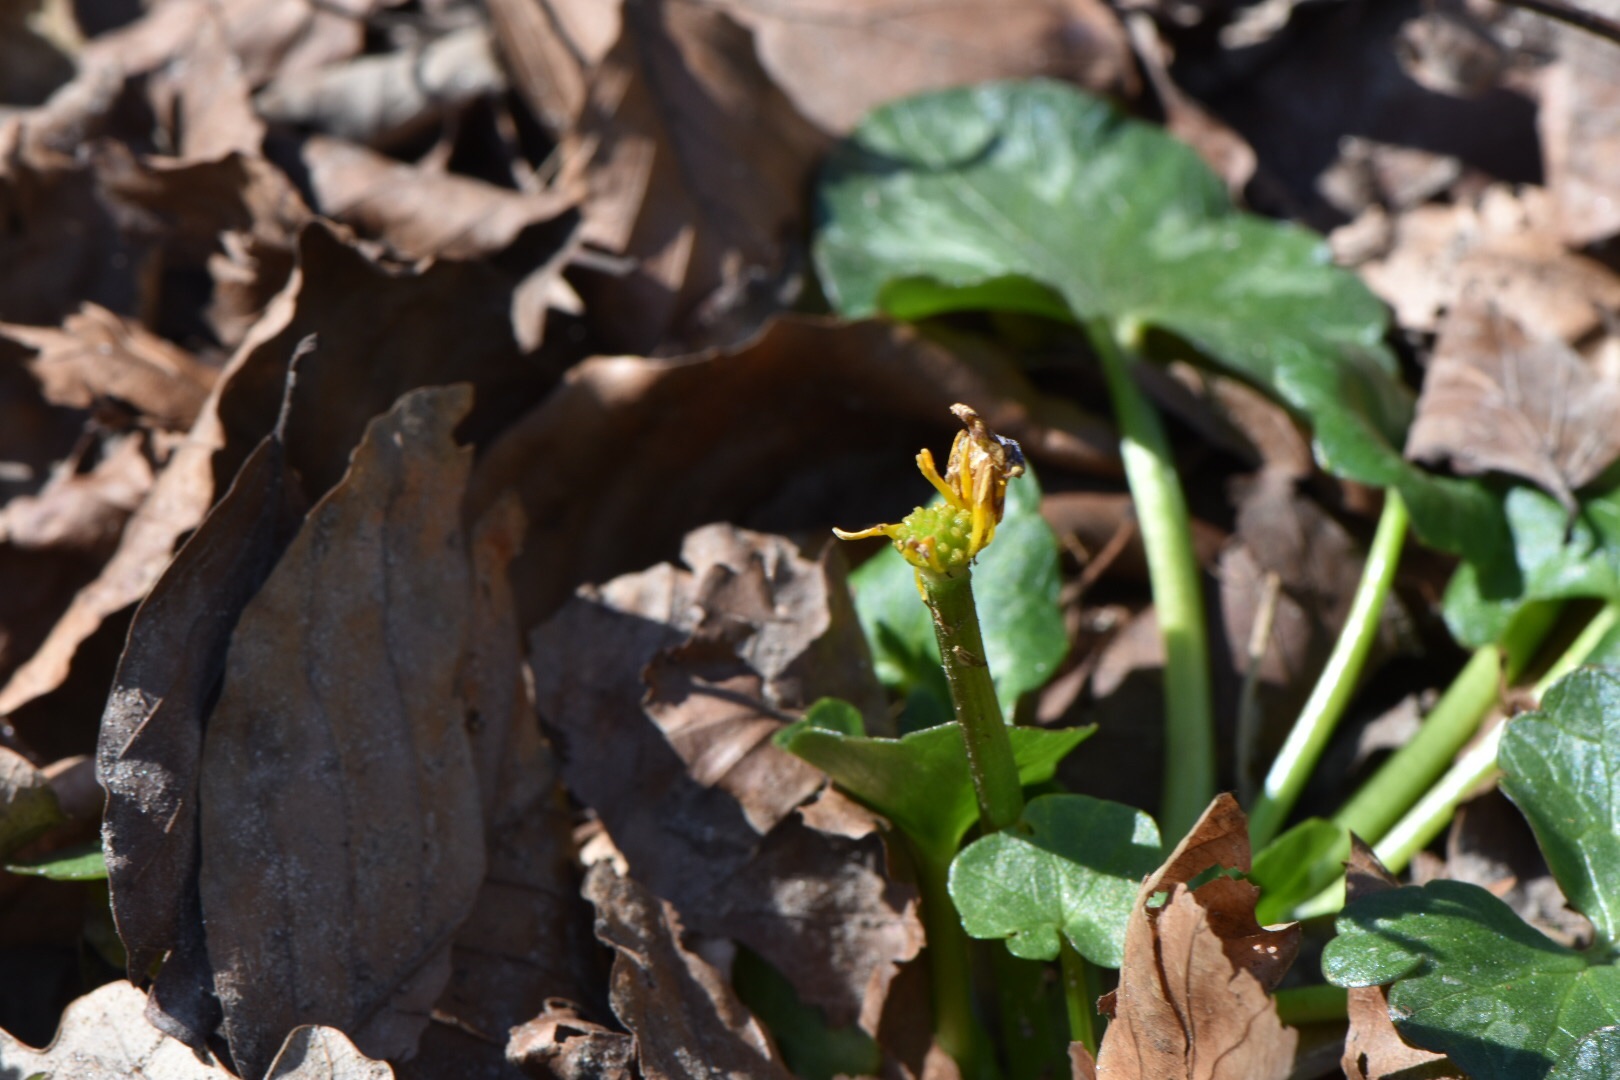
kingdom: Plantae
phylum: Tracheophyta
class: Magnoliopsida
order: Ranunculales
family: Ranunculaceae
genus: Ficaria
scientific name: Ficaria verna
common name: Vorterod
